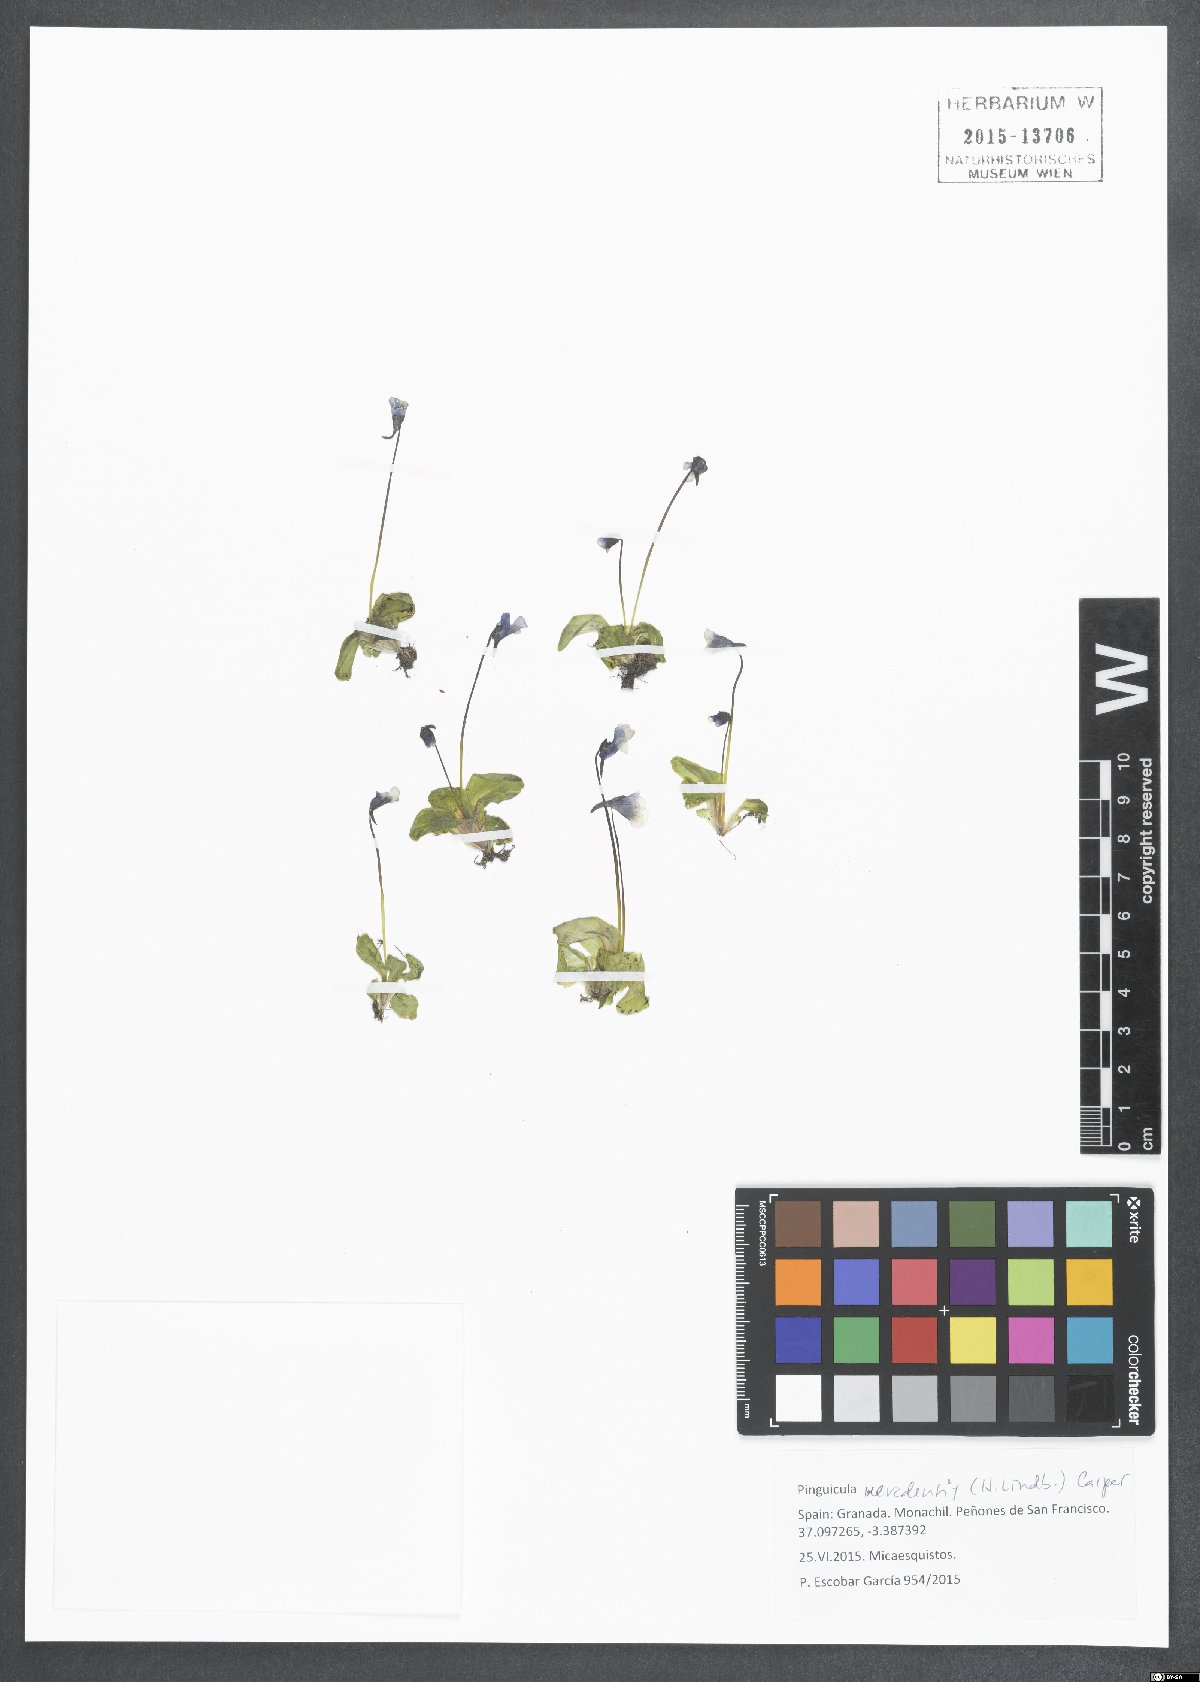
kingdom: Plantae
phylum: Tracheophyta
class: Magnoliopsida
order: Lamiales
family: Lentibulariaceae
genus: Pinguicula
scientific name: Pinguicula nevadensis
